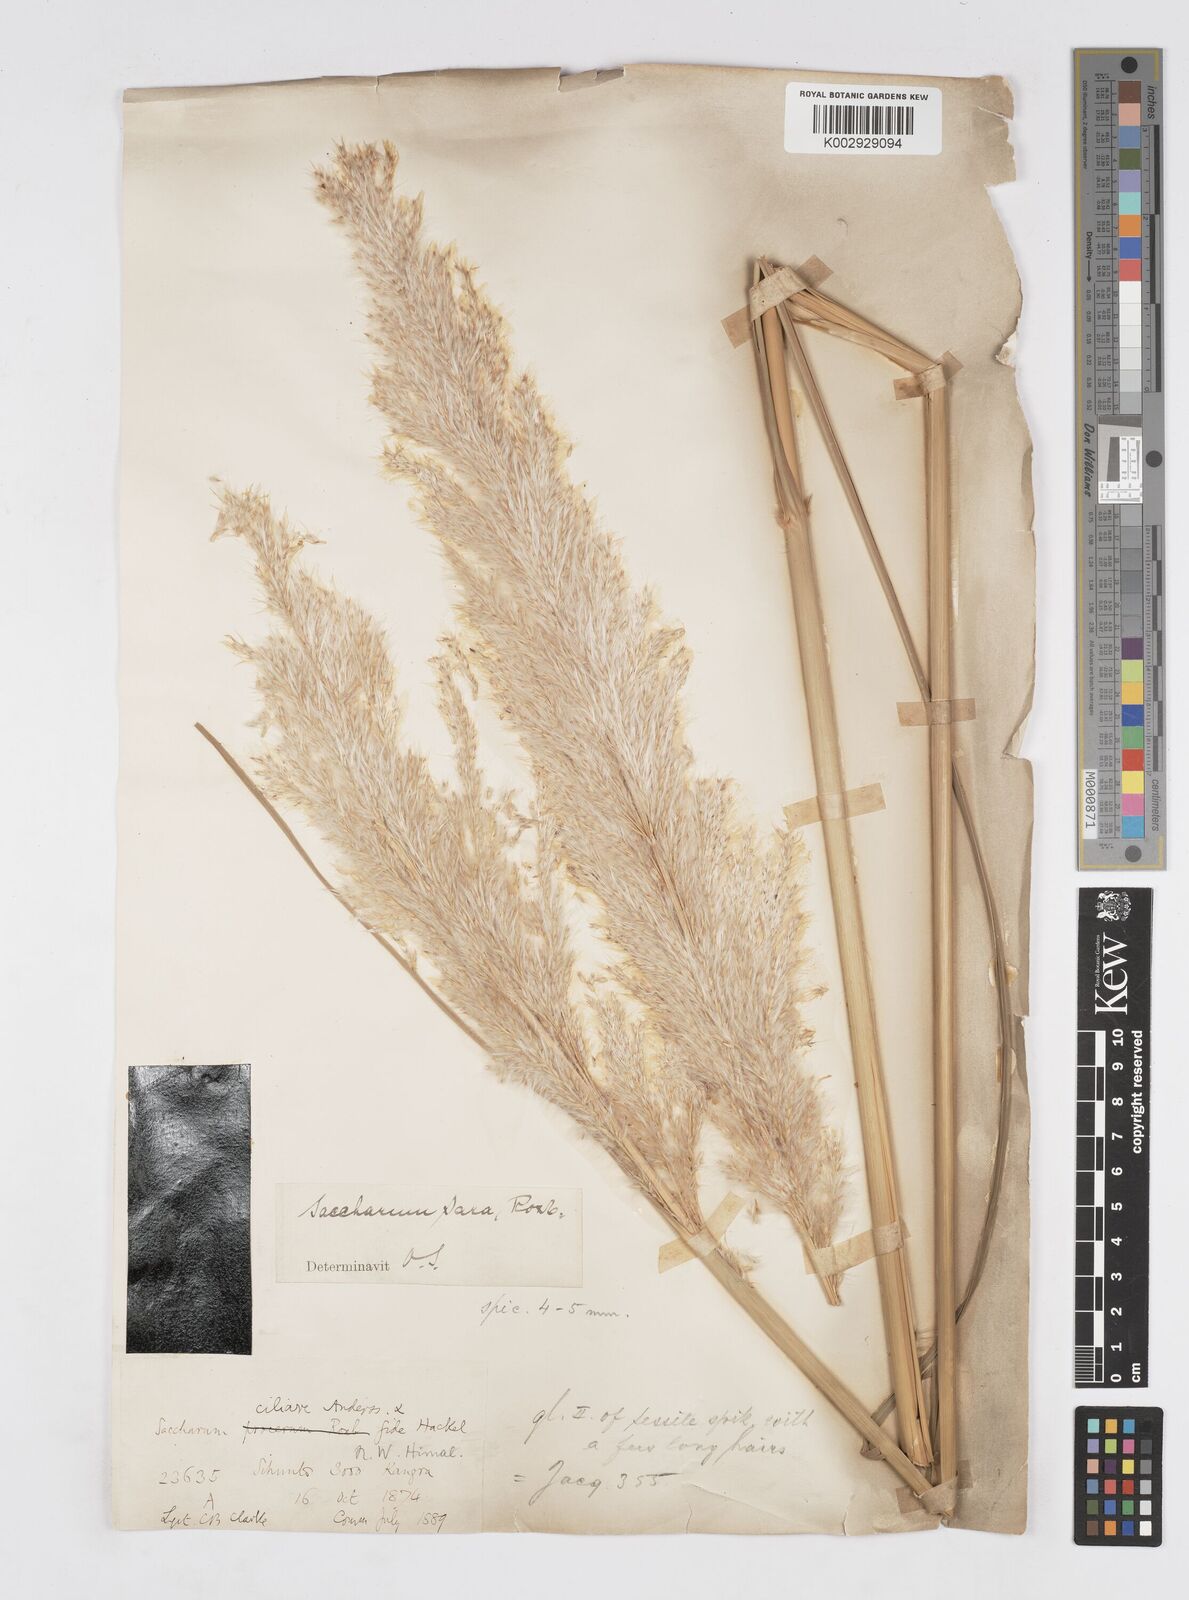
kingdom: Plantae
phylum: Tracheophyta
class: Liliopsida
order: Poales
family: Poaceae
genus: Tripidium
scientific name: Tripidium bengalense
